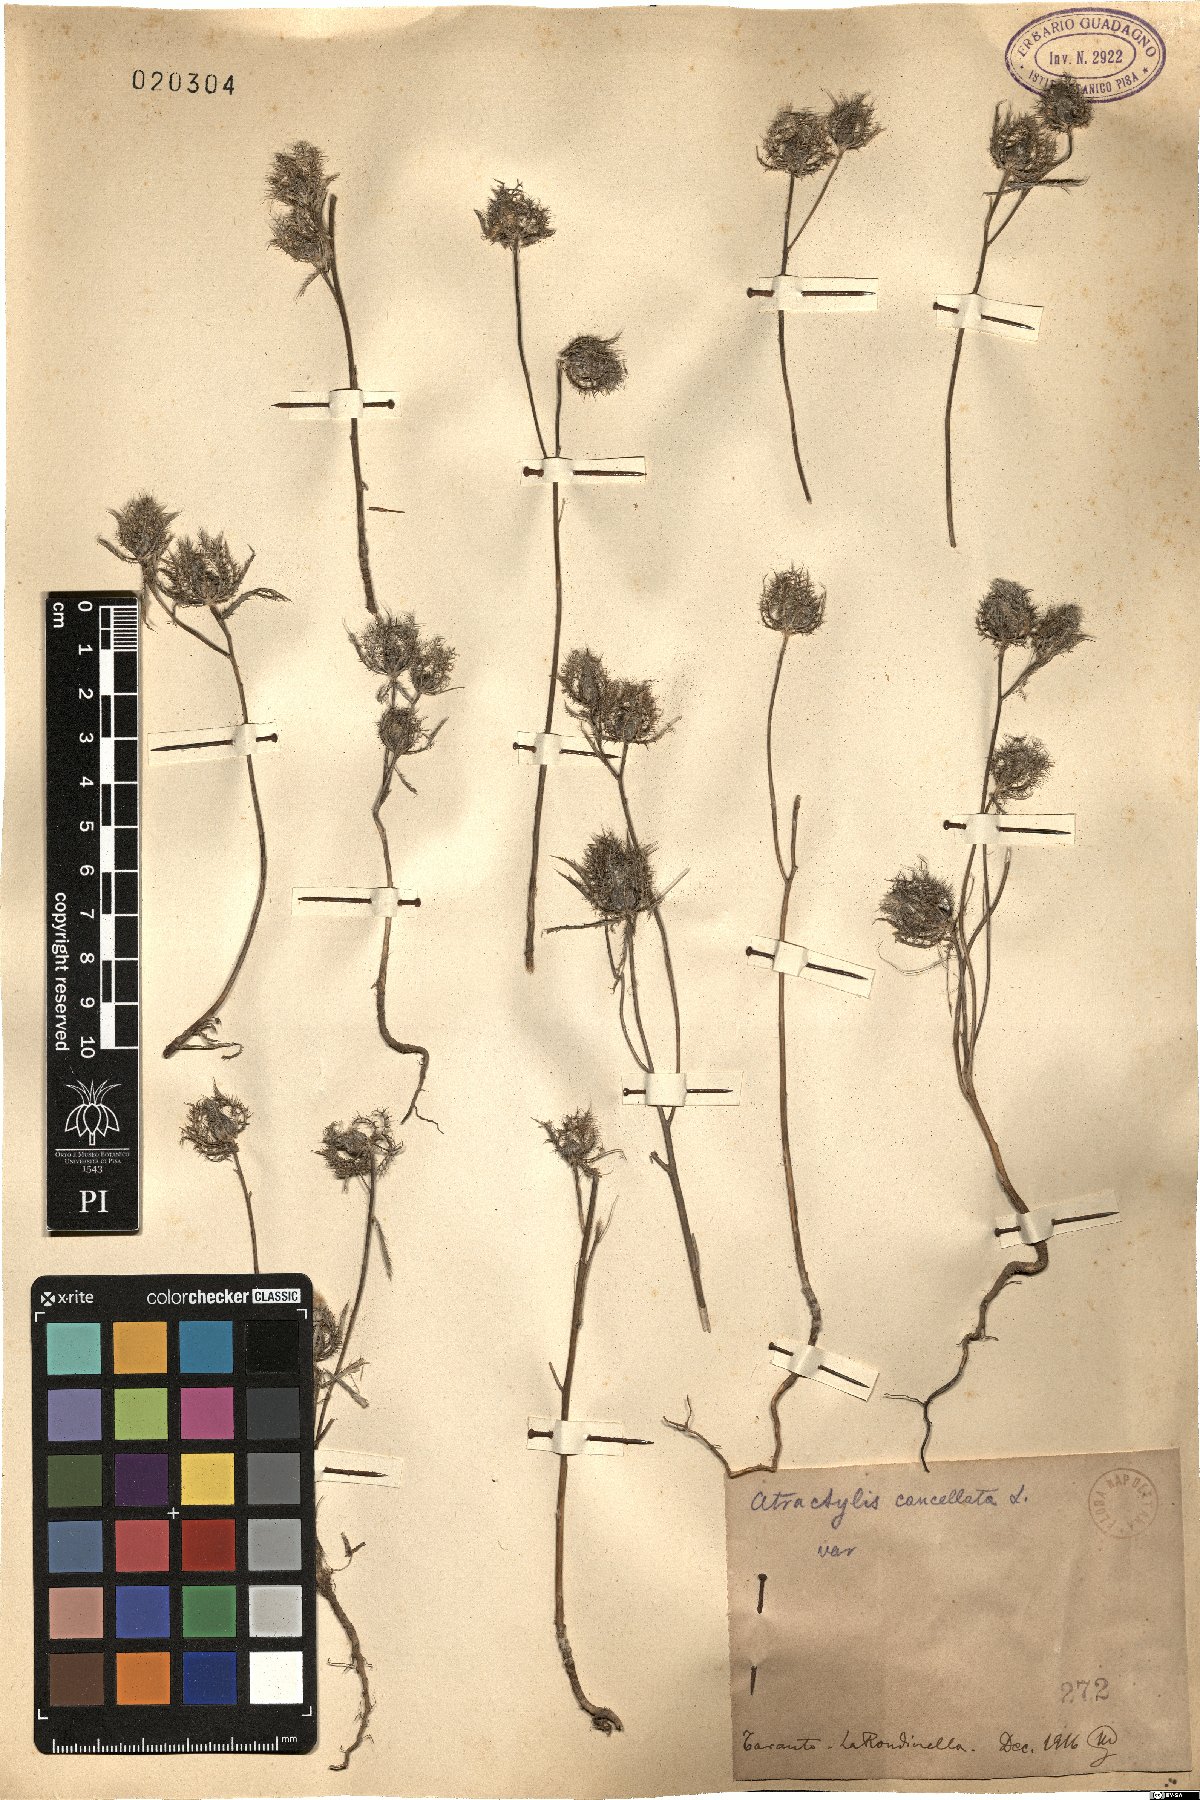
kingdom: Plantae
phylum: Tracheophyta
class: Magnoliopsida
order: Asterales
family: Asteraceae
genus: Atractylis
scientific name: Atractylis cancellata
